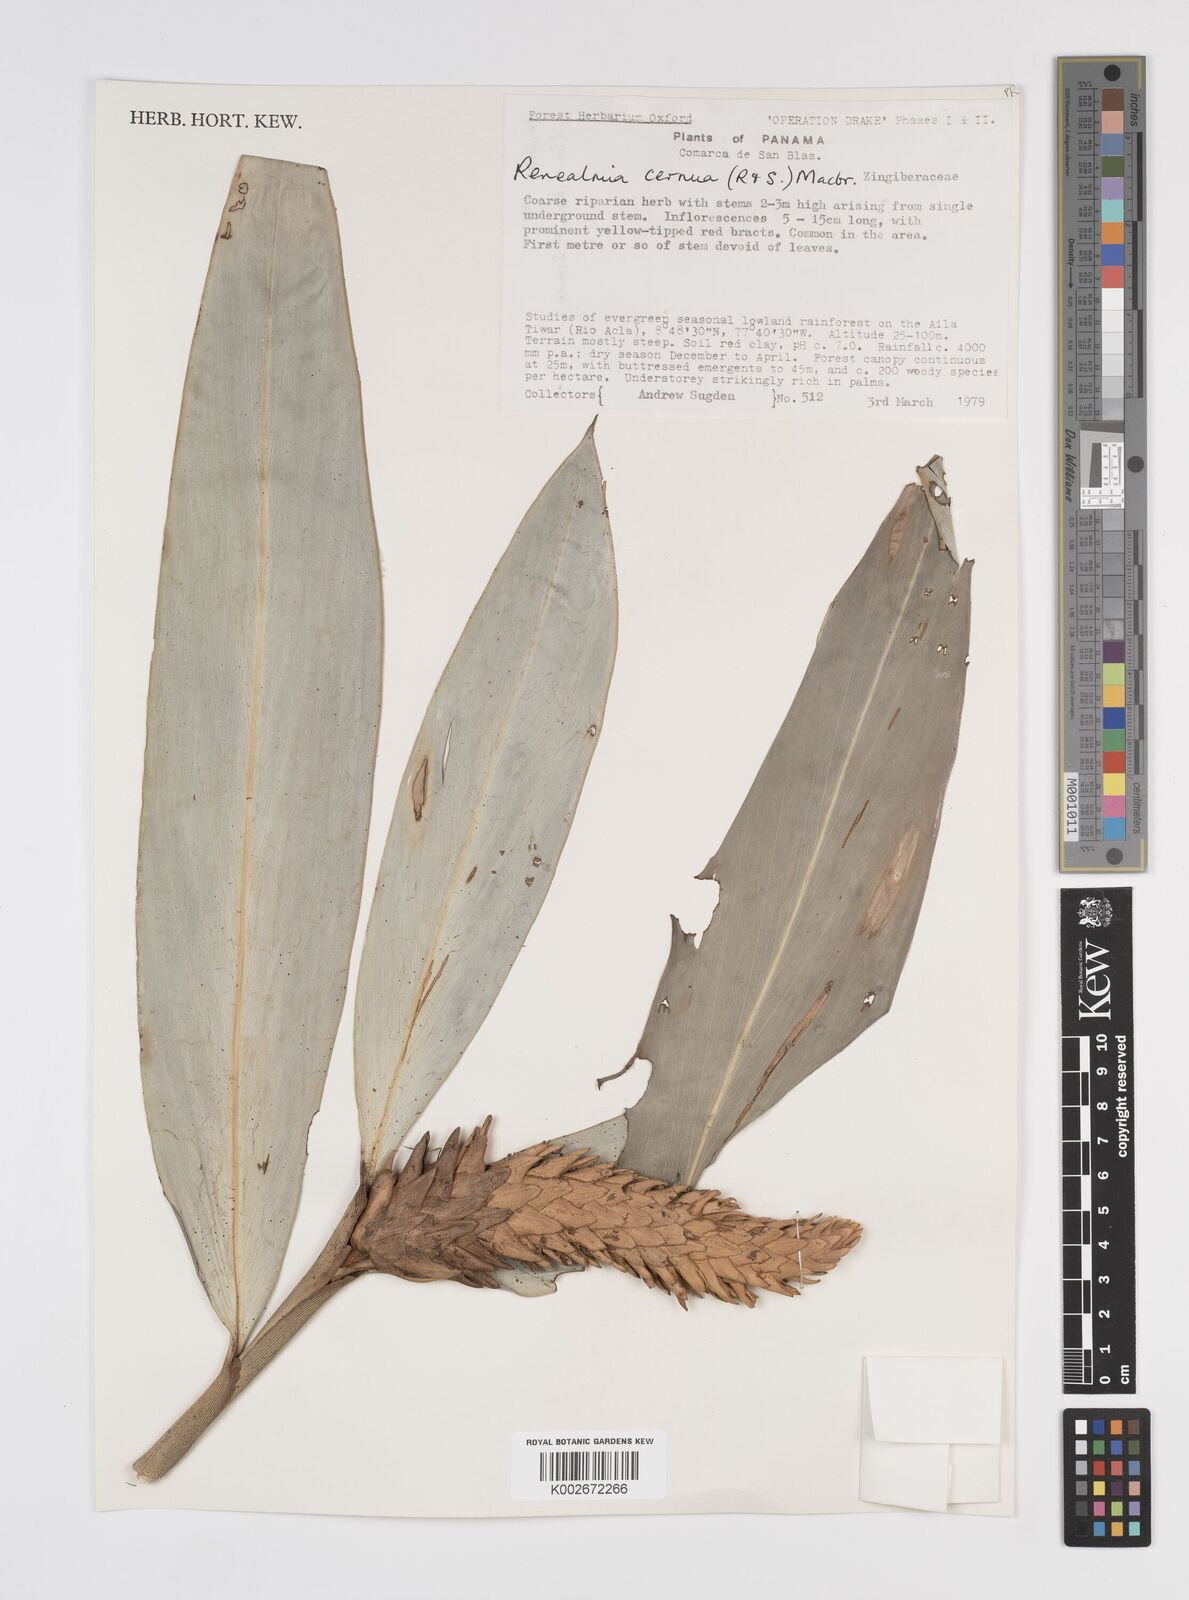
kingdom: Plantae
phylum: Tracheophyta
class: Liliopsida
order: Zingiberales
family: Zingiberaceae
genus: Renealmia
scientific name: Renealmia cernua
